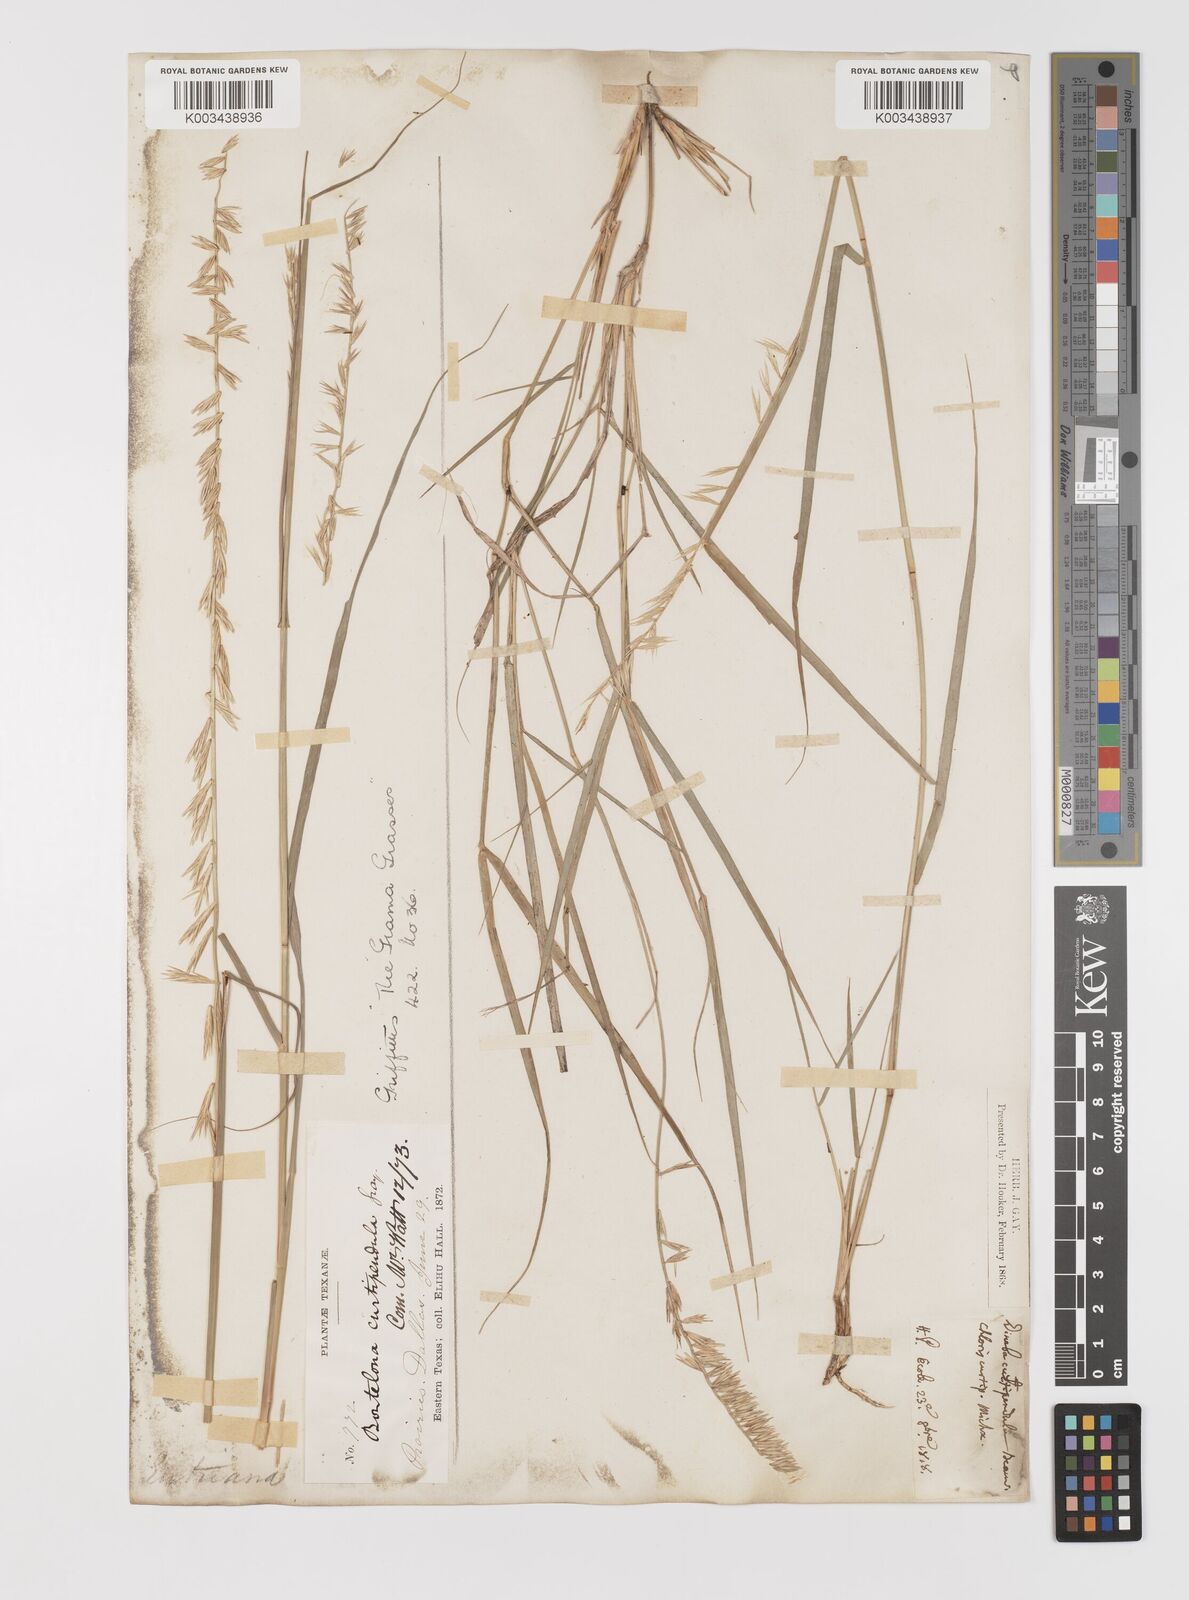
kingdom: Plantae
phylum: Tracheophyta
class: Liliopsida
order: Poales
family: Poaceae
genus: Bouteloua
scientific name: Bouteloua curtipendula
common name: Side-oats grama
